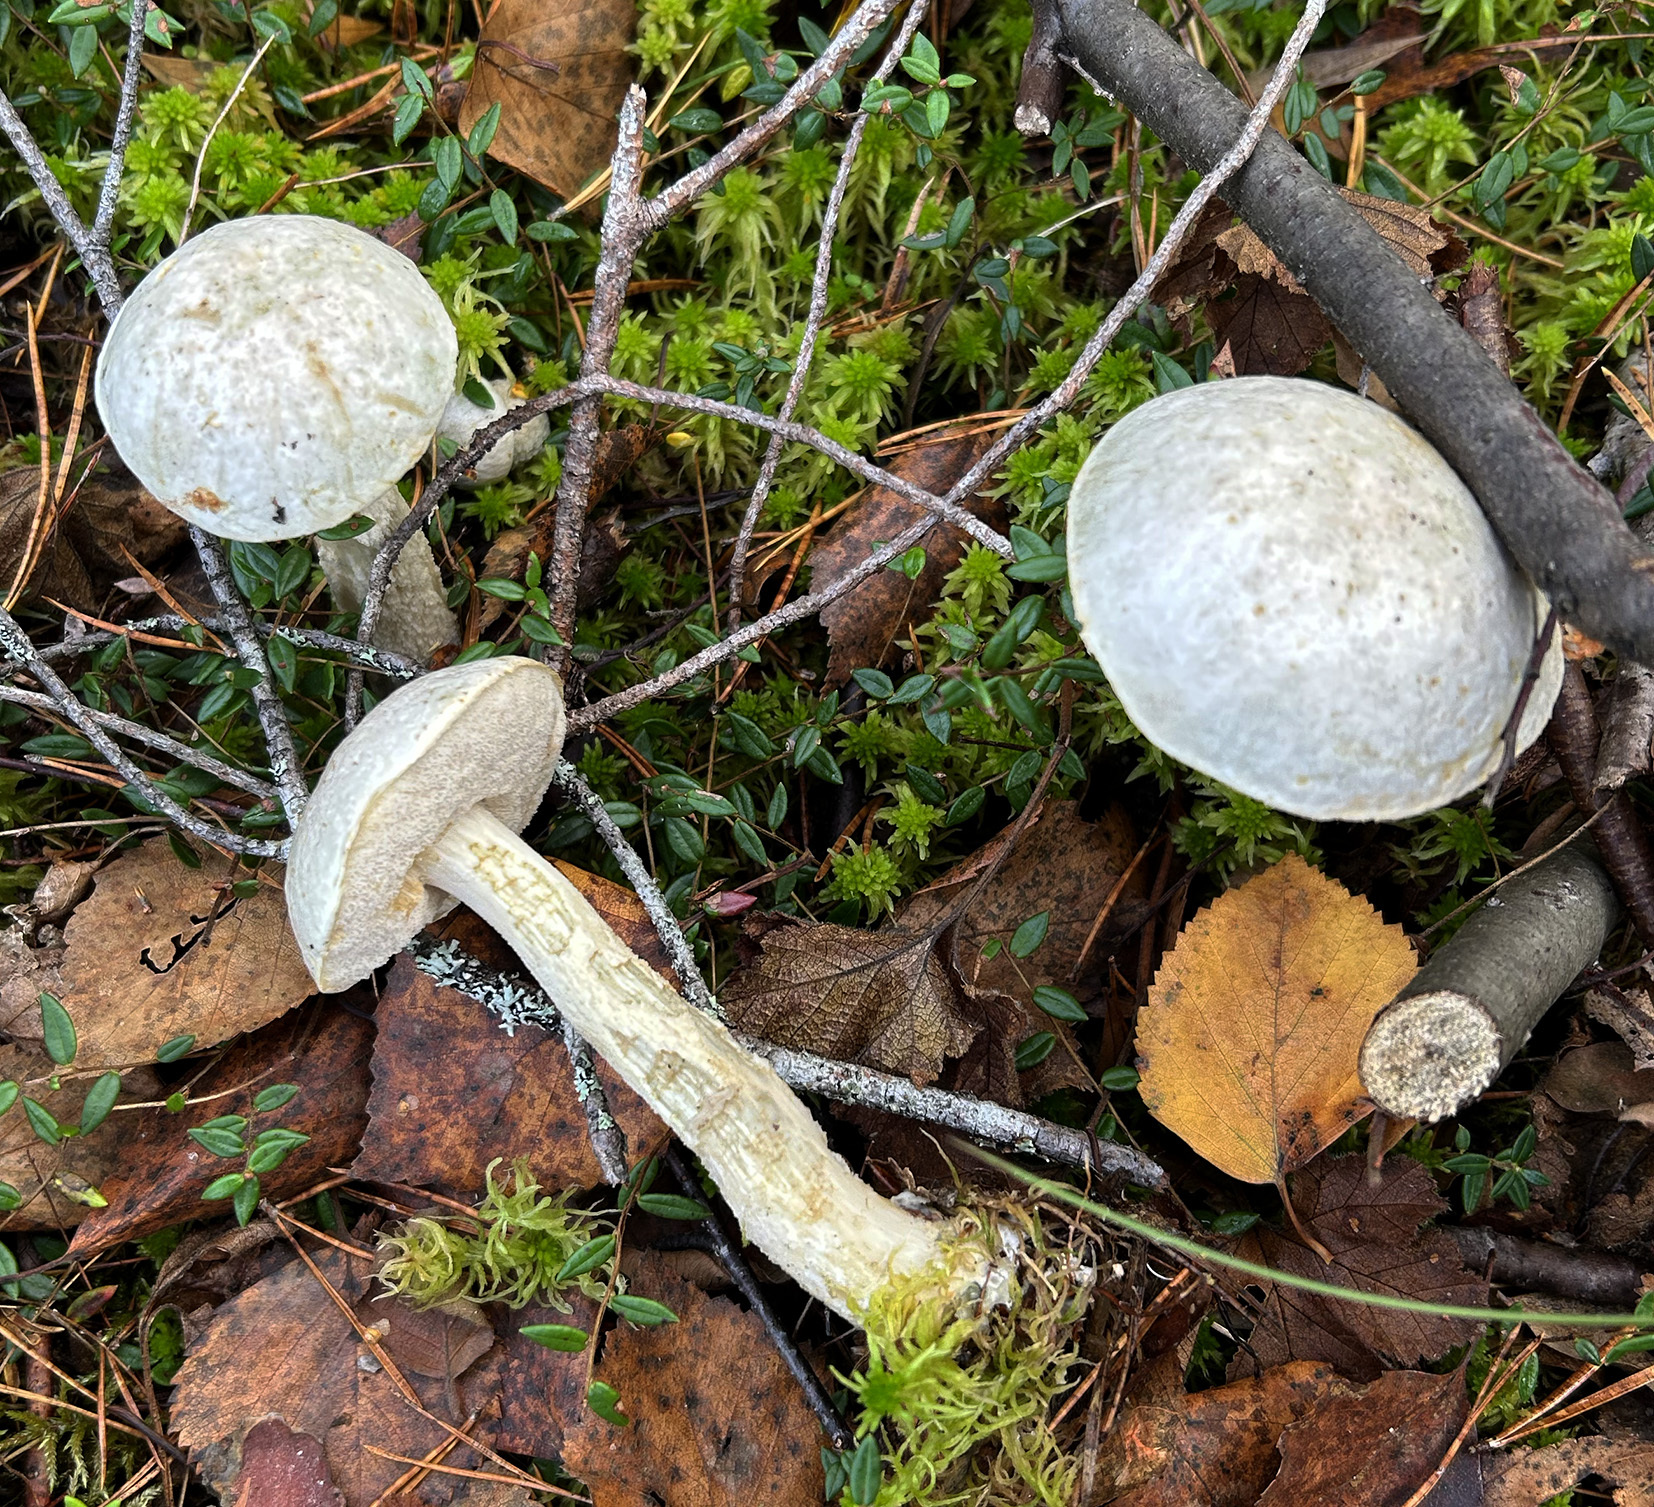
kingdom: Fungi
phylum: Basidiomycota
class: Agaricomycetes
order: Boletales
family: Boletaceae
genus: Leccinum
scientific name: Leccinum holopus
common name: Ghost bolete
